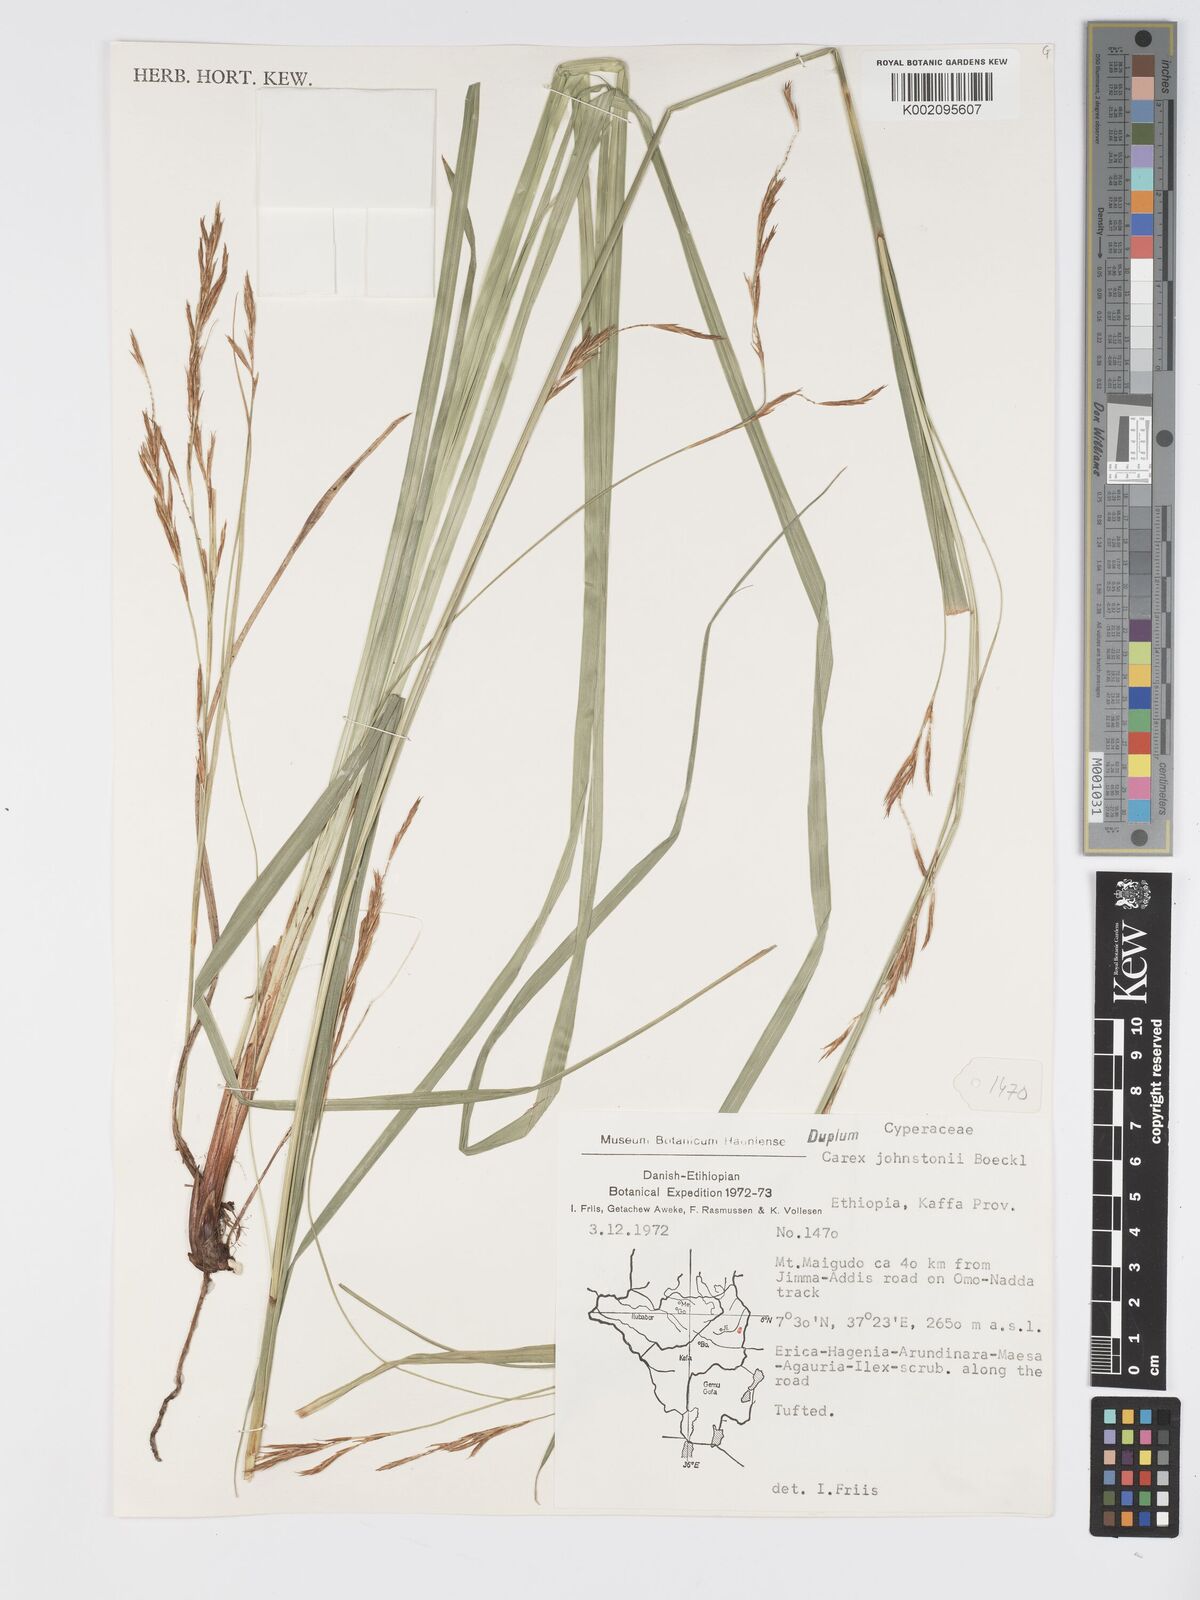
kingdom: Plantae
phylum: Tracheophyta
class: Liliopsida
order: Poales
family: Cyperaceae
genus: Carex
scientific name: Carex johnstonii
